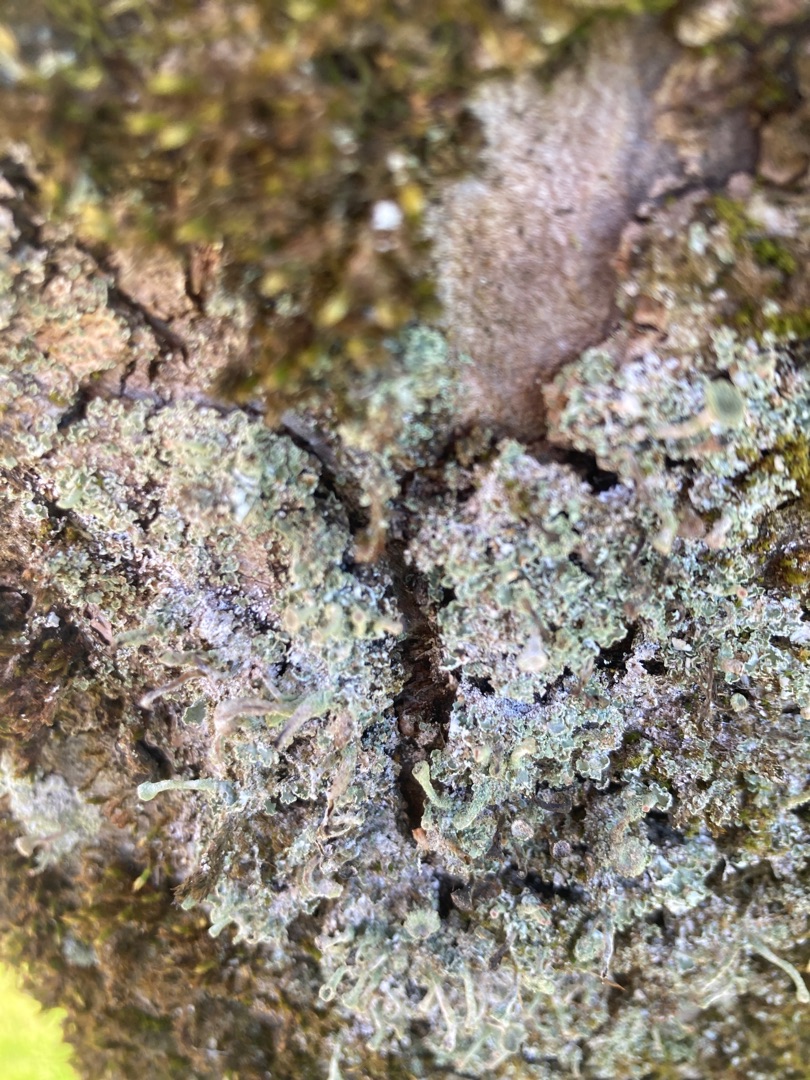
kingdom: Fungi
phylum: Ascomycota
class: Lecanoromycetes
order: Lecanorales
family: Cladoniaceae
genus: Cladonia
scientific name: Cladonia chlorophaea
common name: Brungrøn bægerlav
